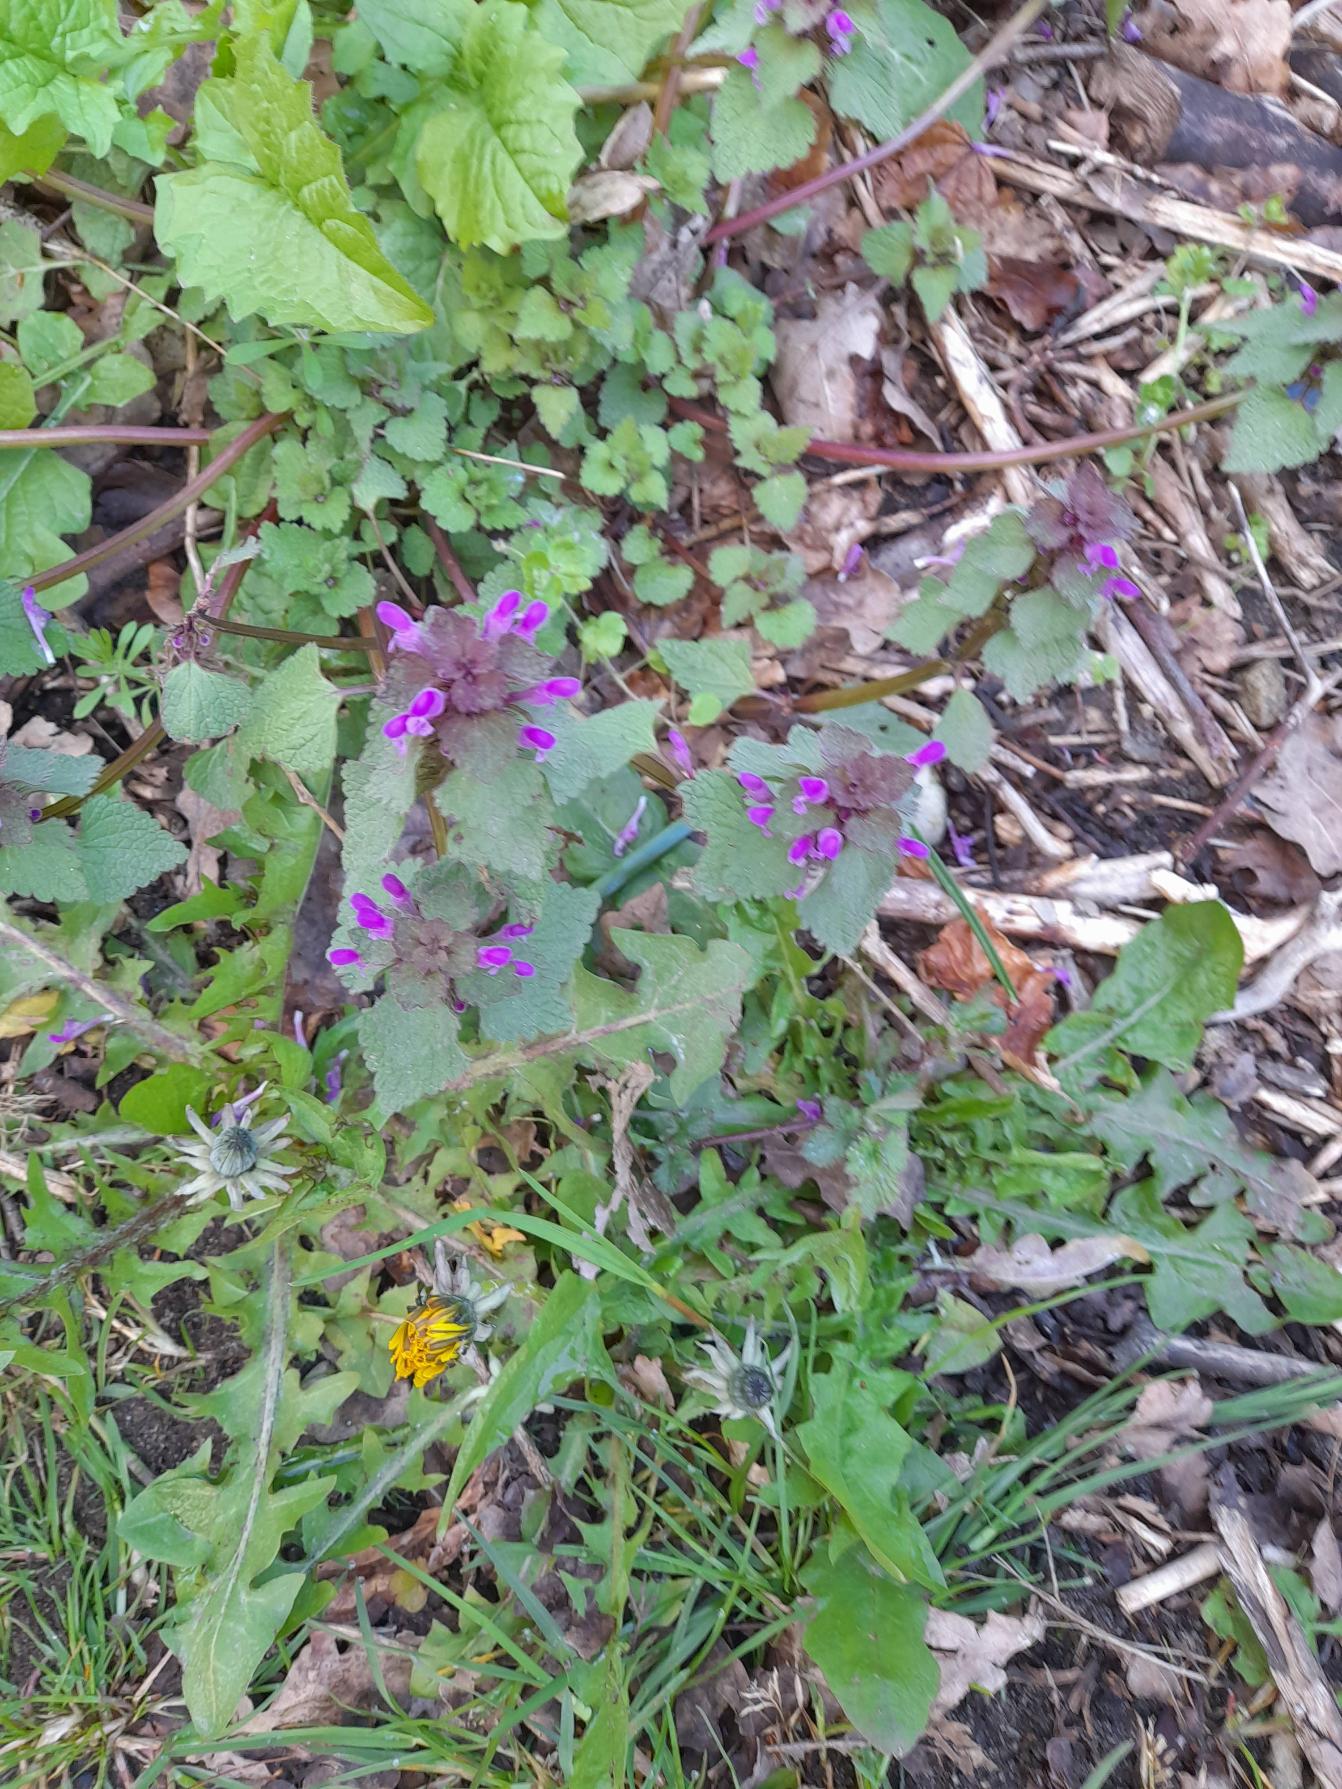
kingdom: Plantae
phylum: Tracheophyta
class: Magnoliopsida
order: Lamiales
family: Lamiaceae
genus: Lamium
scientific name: Lamium purpureum
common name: Rød tvetand
